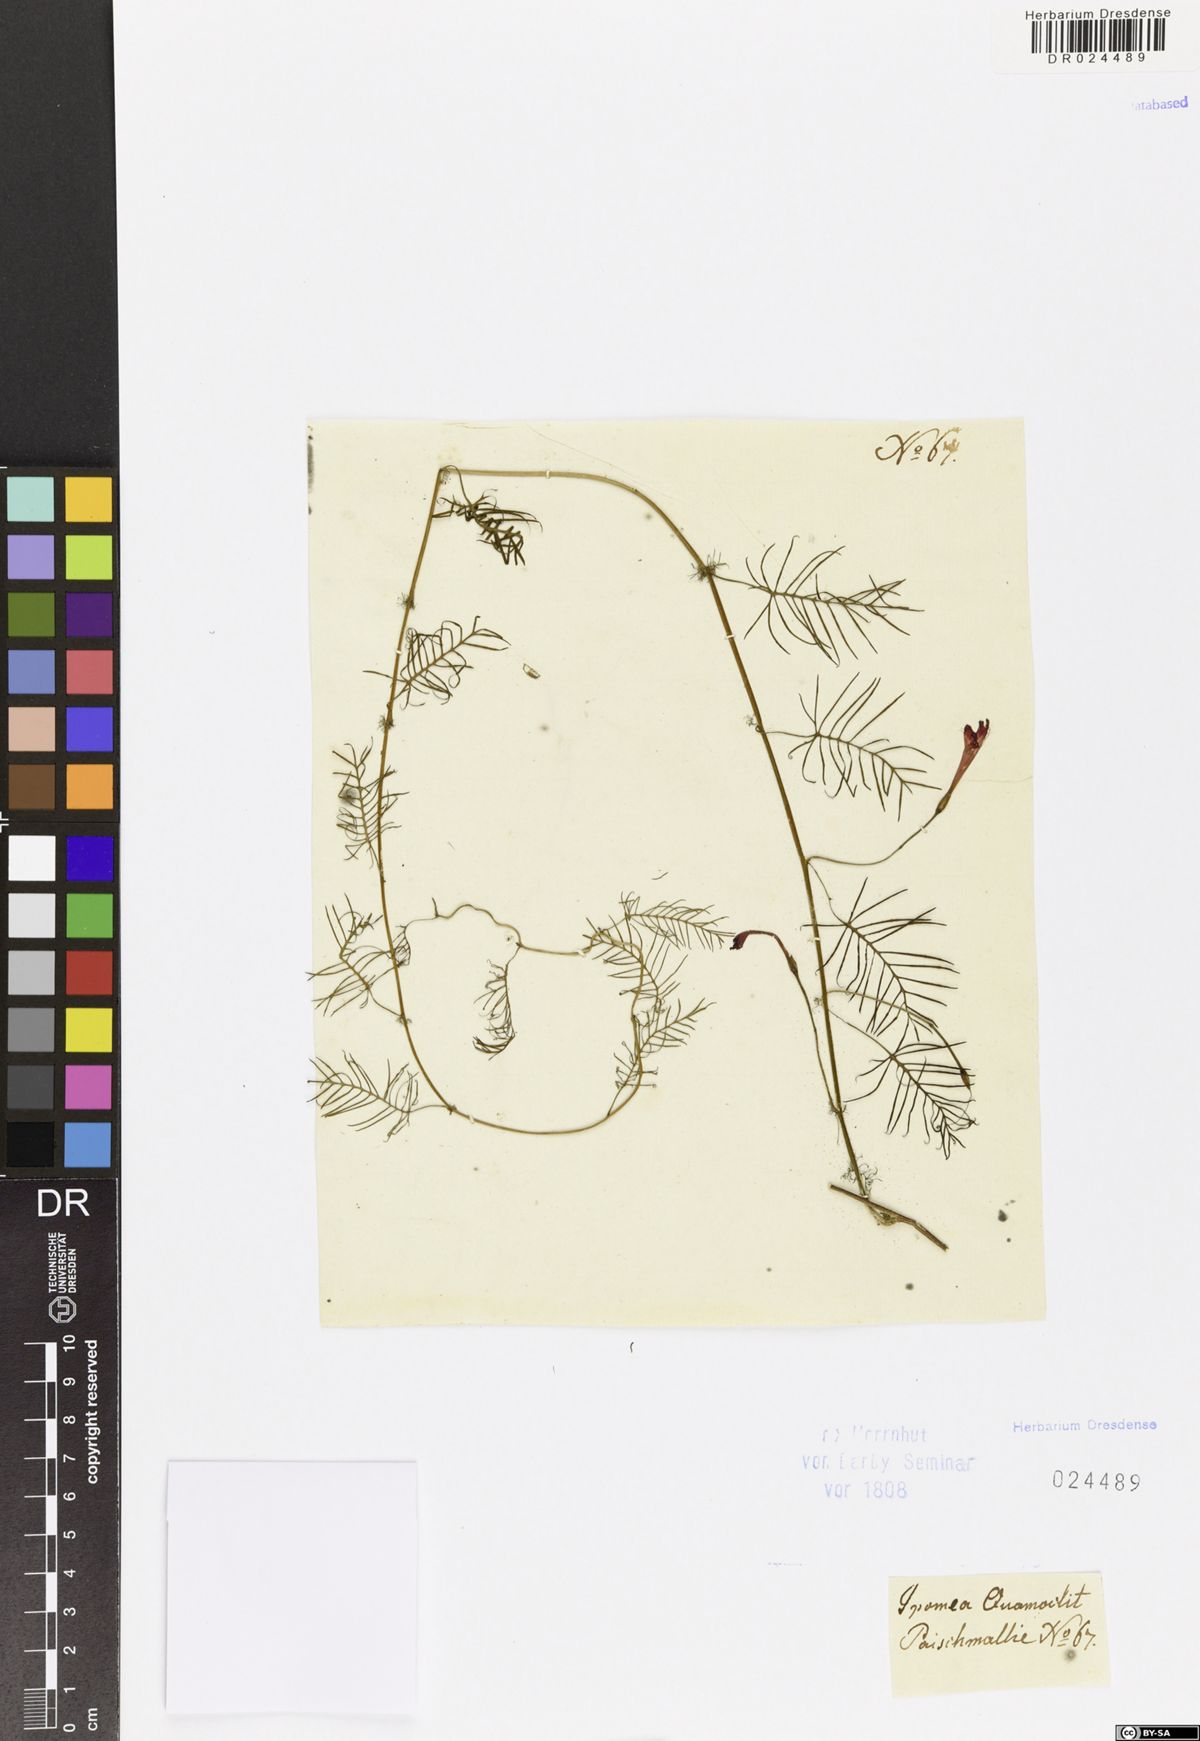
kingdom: Plantae
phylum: Tracheophyta
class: Magnoliopsida
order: Solanales
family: Convolvulaceae
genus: Ipomoea
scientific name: Ipomoea quamoclit
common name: Cypress vine
